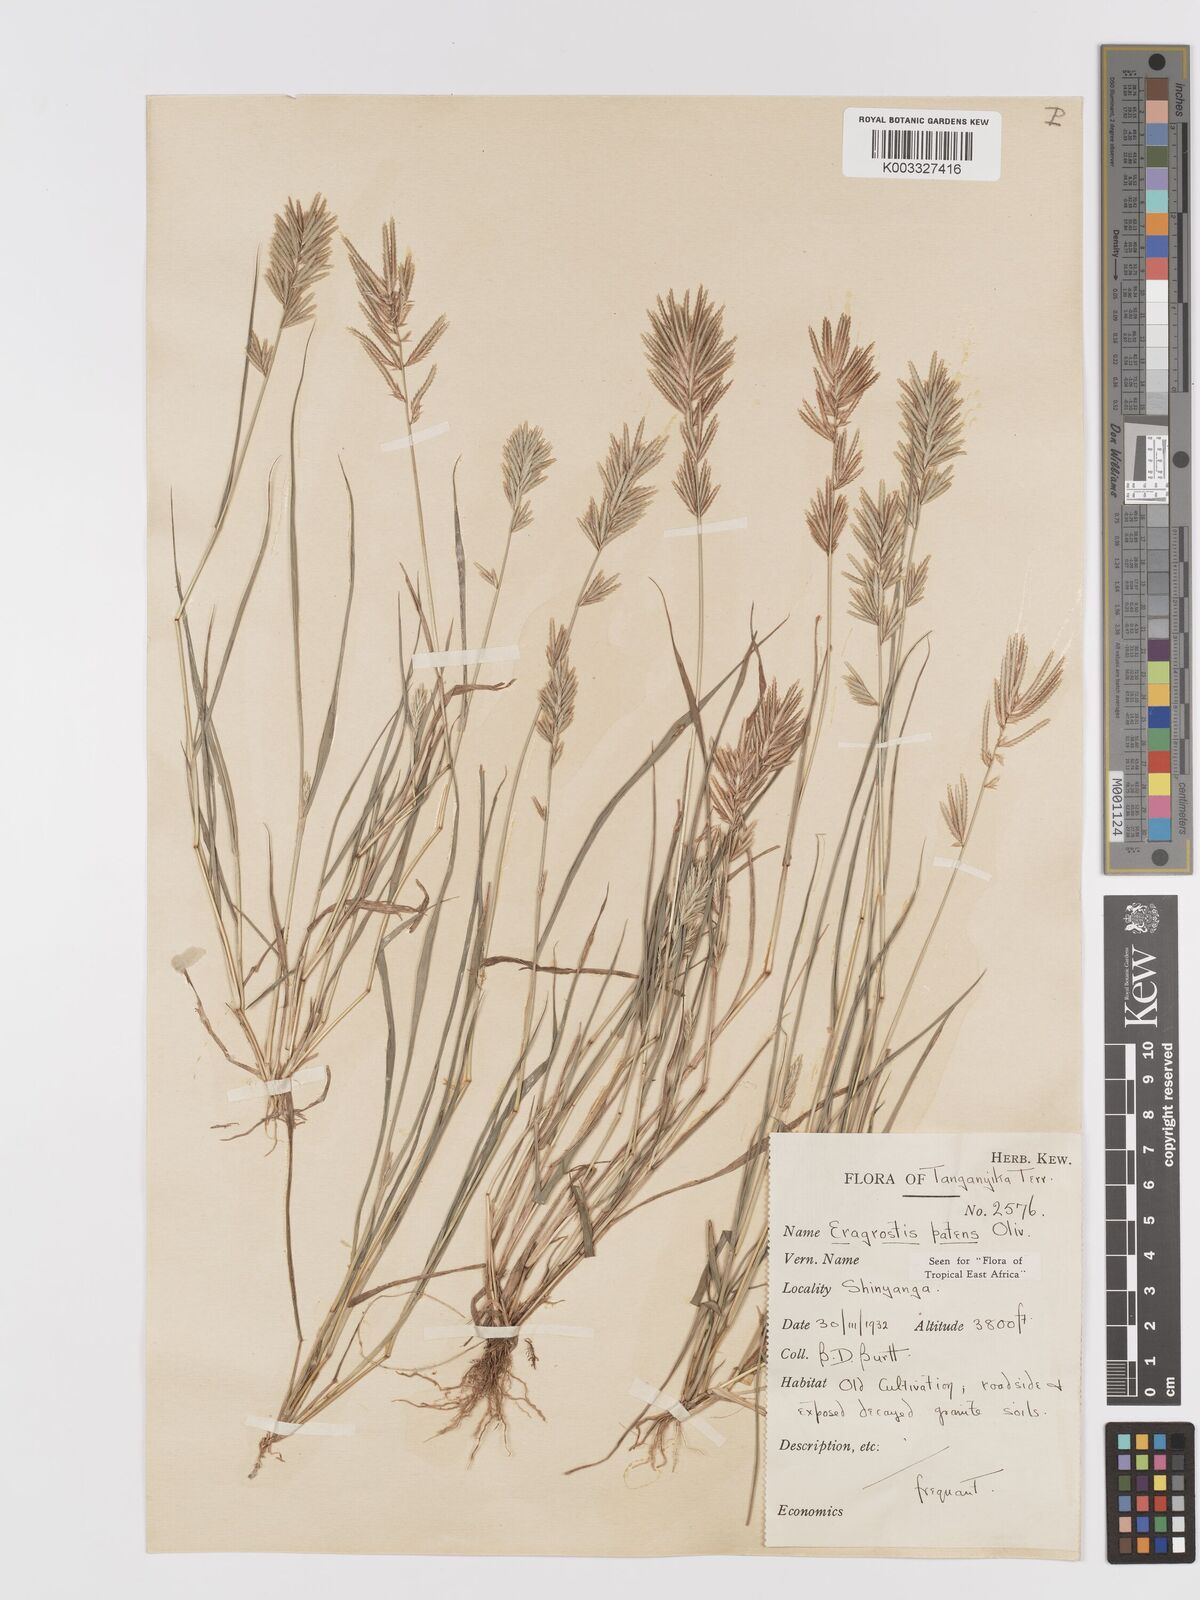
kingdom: Plantae
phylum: Tracheophyta
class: Liliopsida
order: Poales
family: Poaceae
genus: Eragrostis
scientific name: Eragrostis patens
